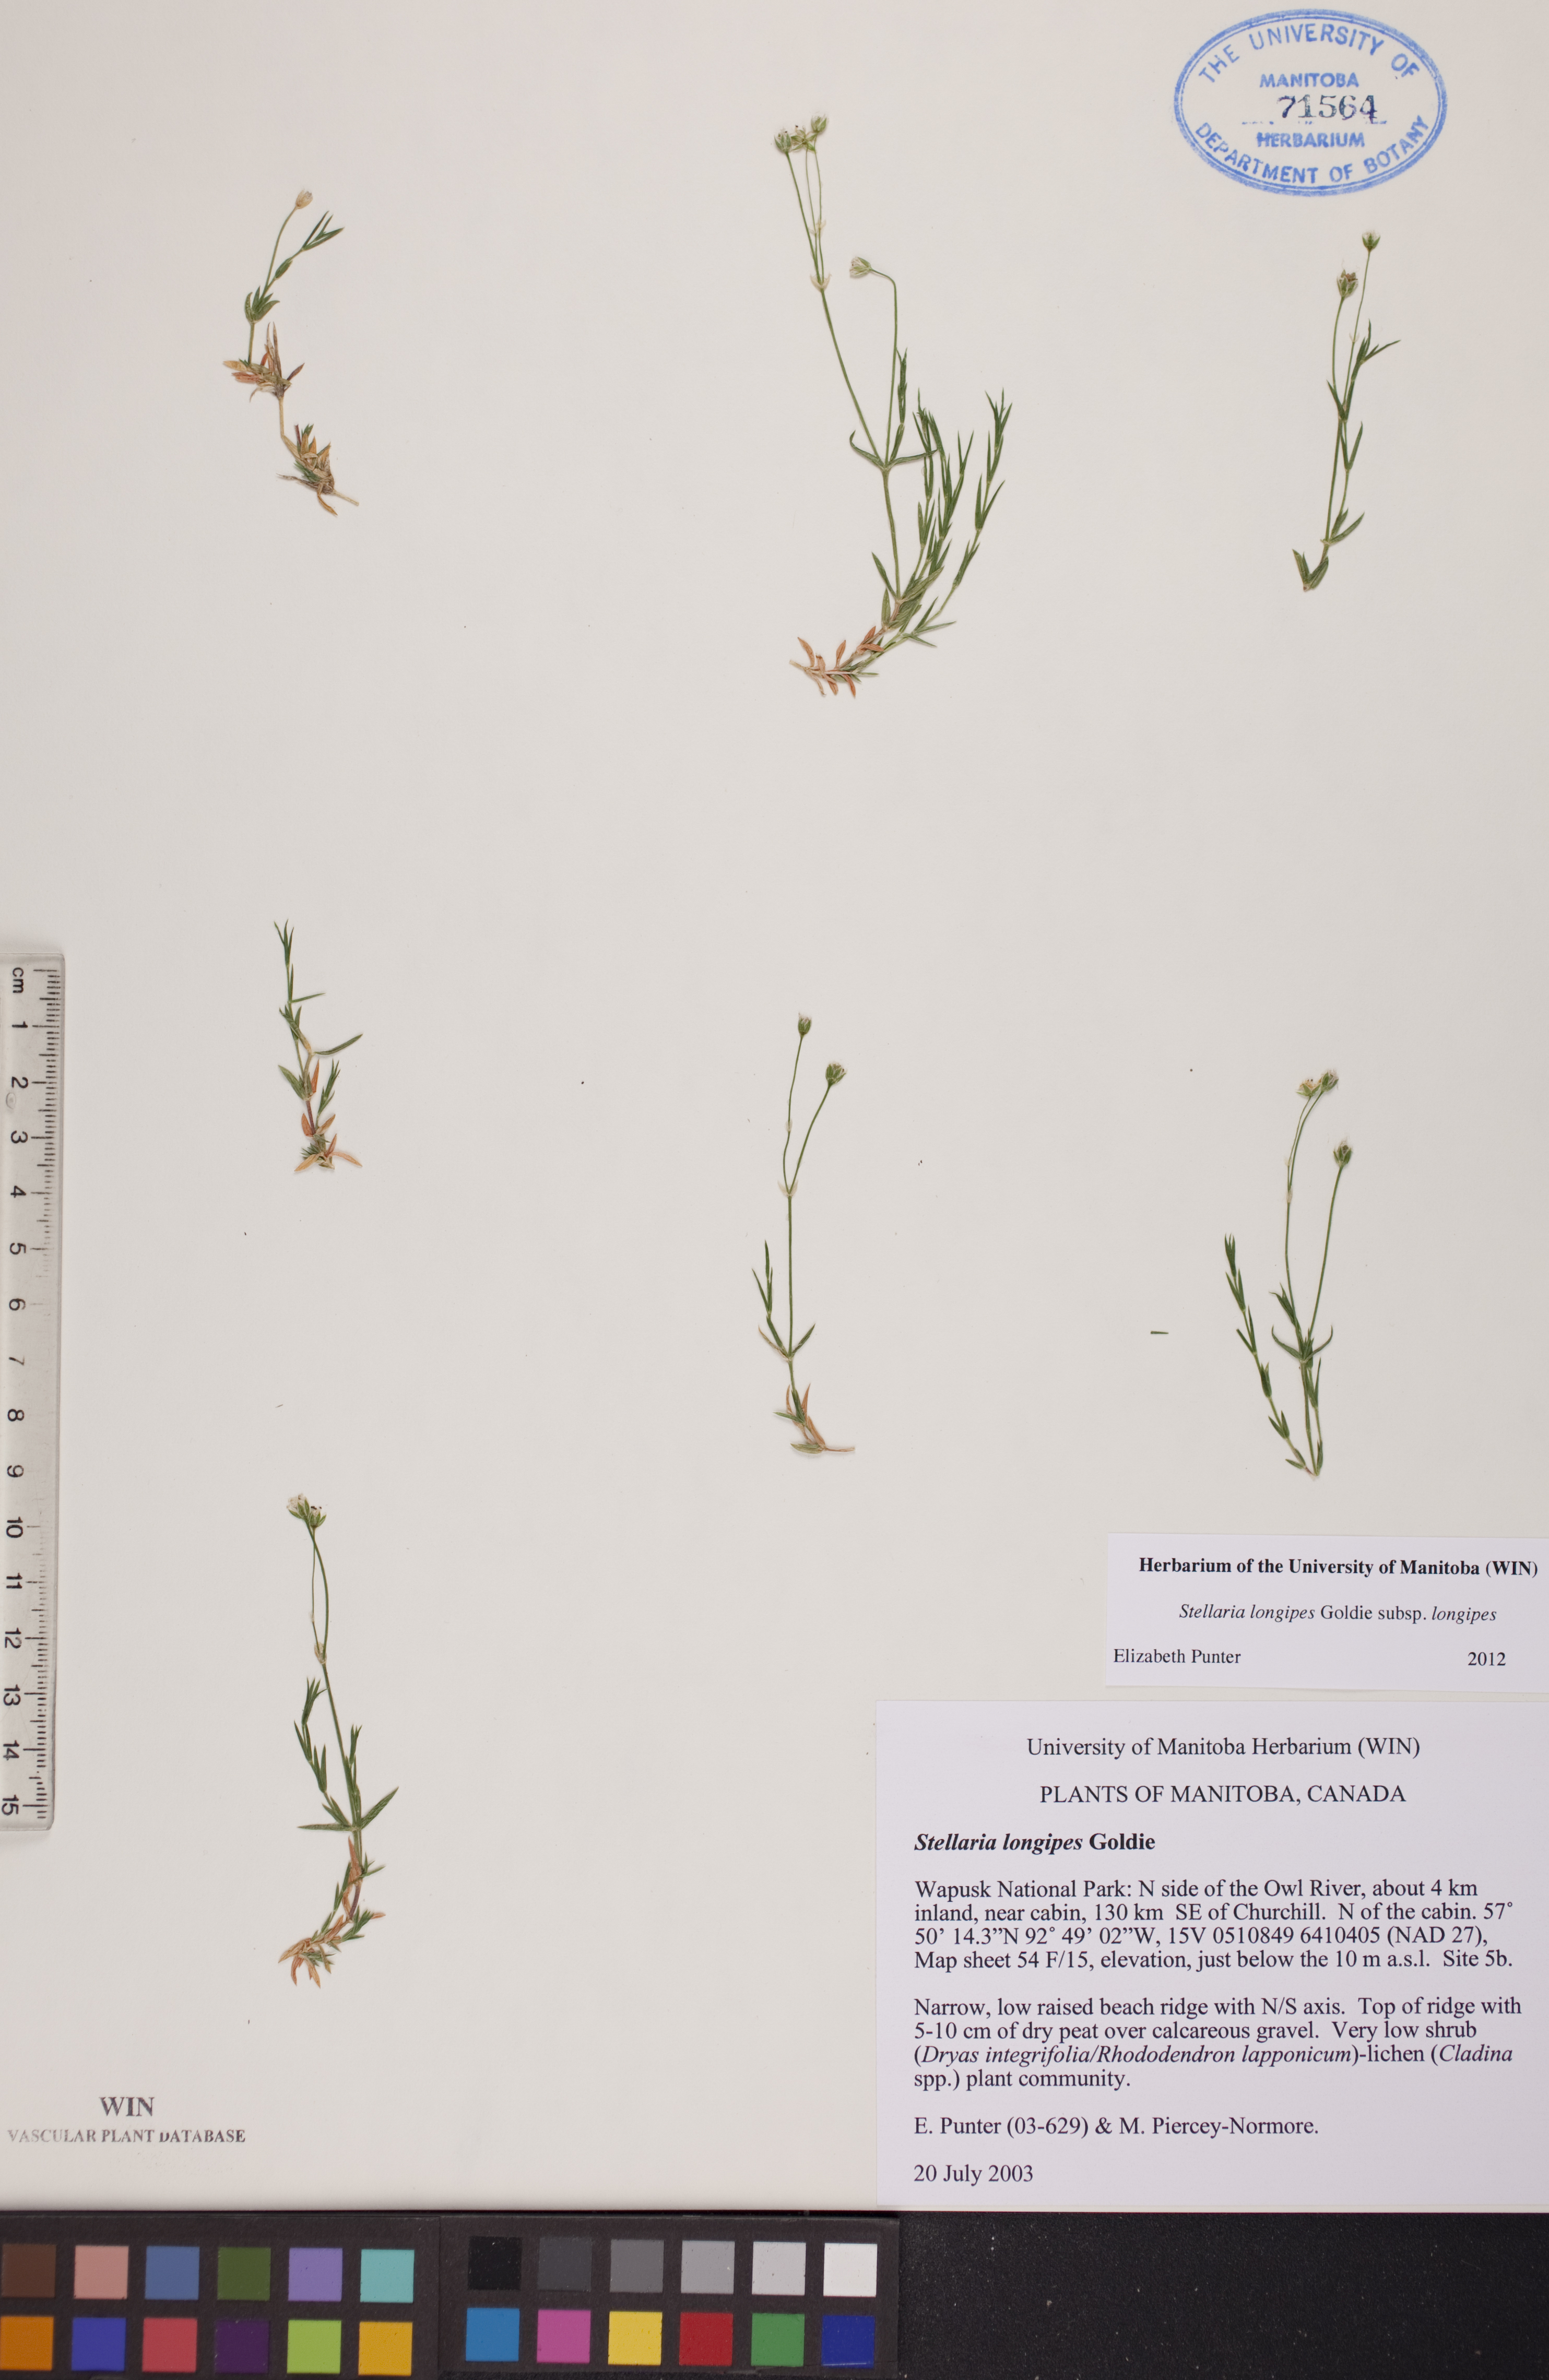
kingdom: Plantae
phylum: Tracheophyta
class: Magnoliopsida
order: Caryophyllales
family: Caryophyllaceae
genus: Stellaria
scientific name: Stellaria longipes
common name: Goldie's starwort
